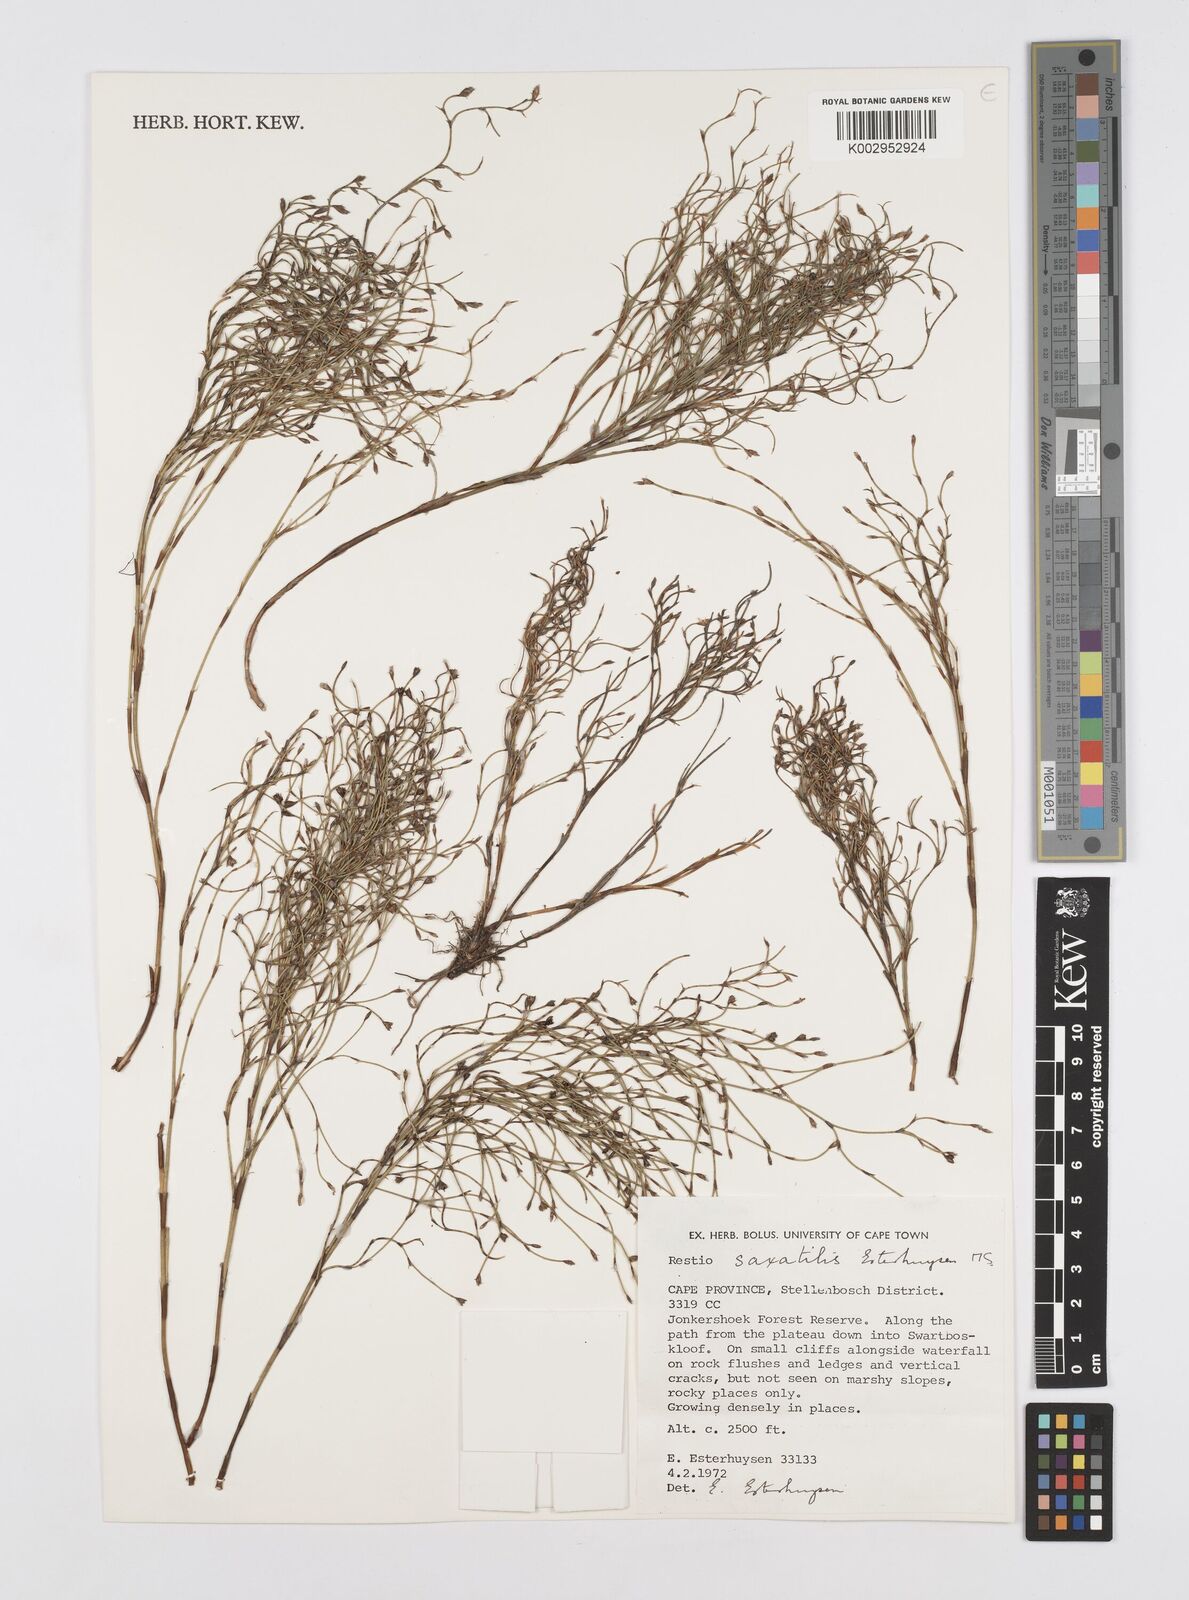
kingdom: Plantae
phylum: Tracheophyta
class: Liliopsida
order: Poales
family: Restionaceae
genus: Restio
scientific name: Restio saxatilis
